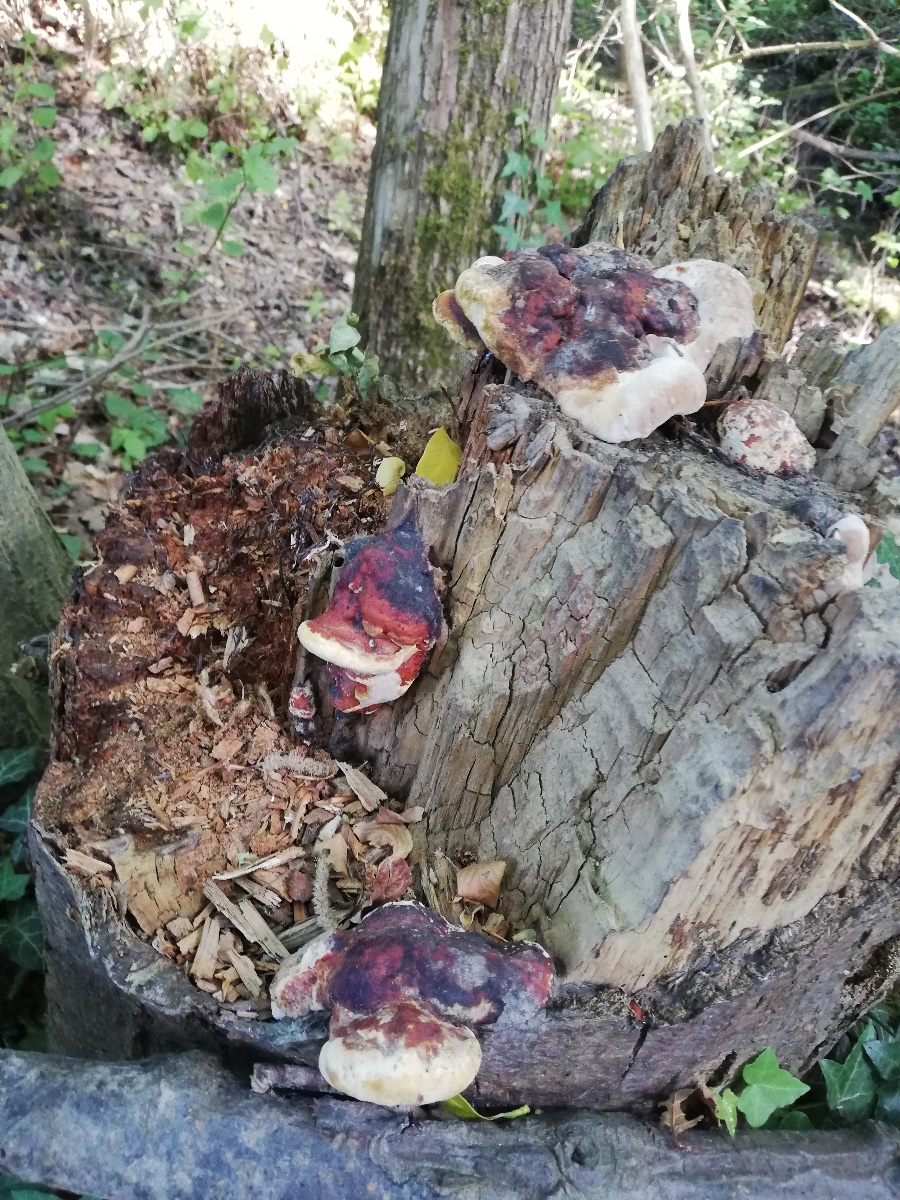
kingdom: Fungi
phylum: Basidiomycota
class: Agaricomycetes
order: Polyporales
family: Fomitopsidaceae
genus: Fomitopsis
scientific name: Fomitopsis pinicola
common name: randbæltet hovporesvamp
